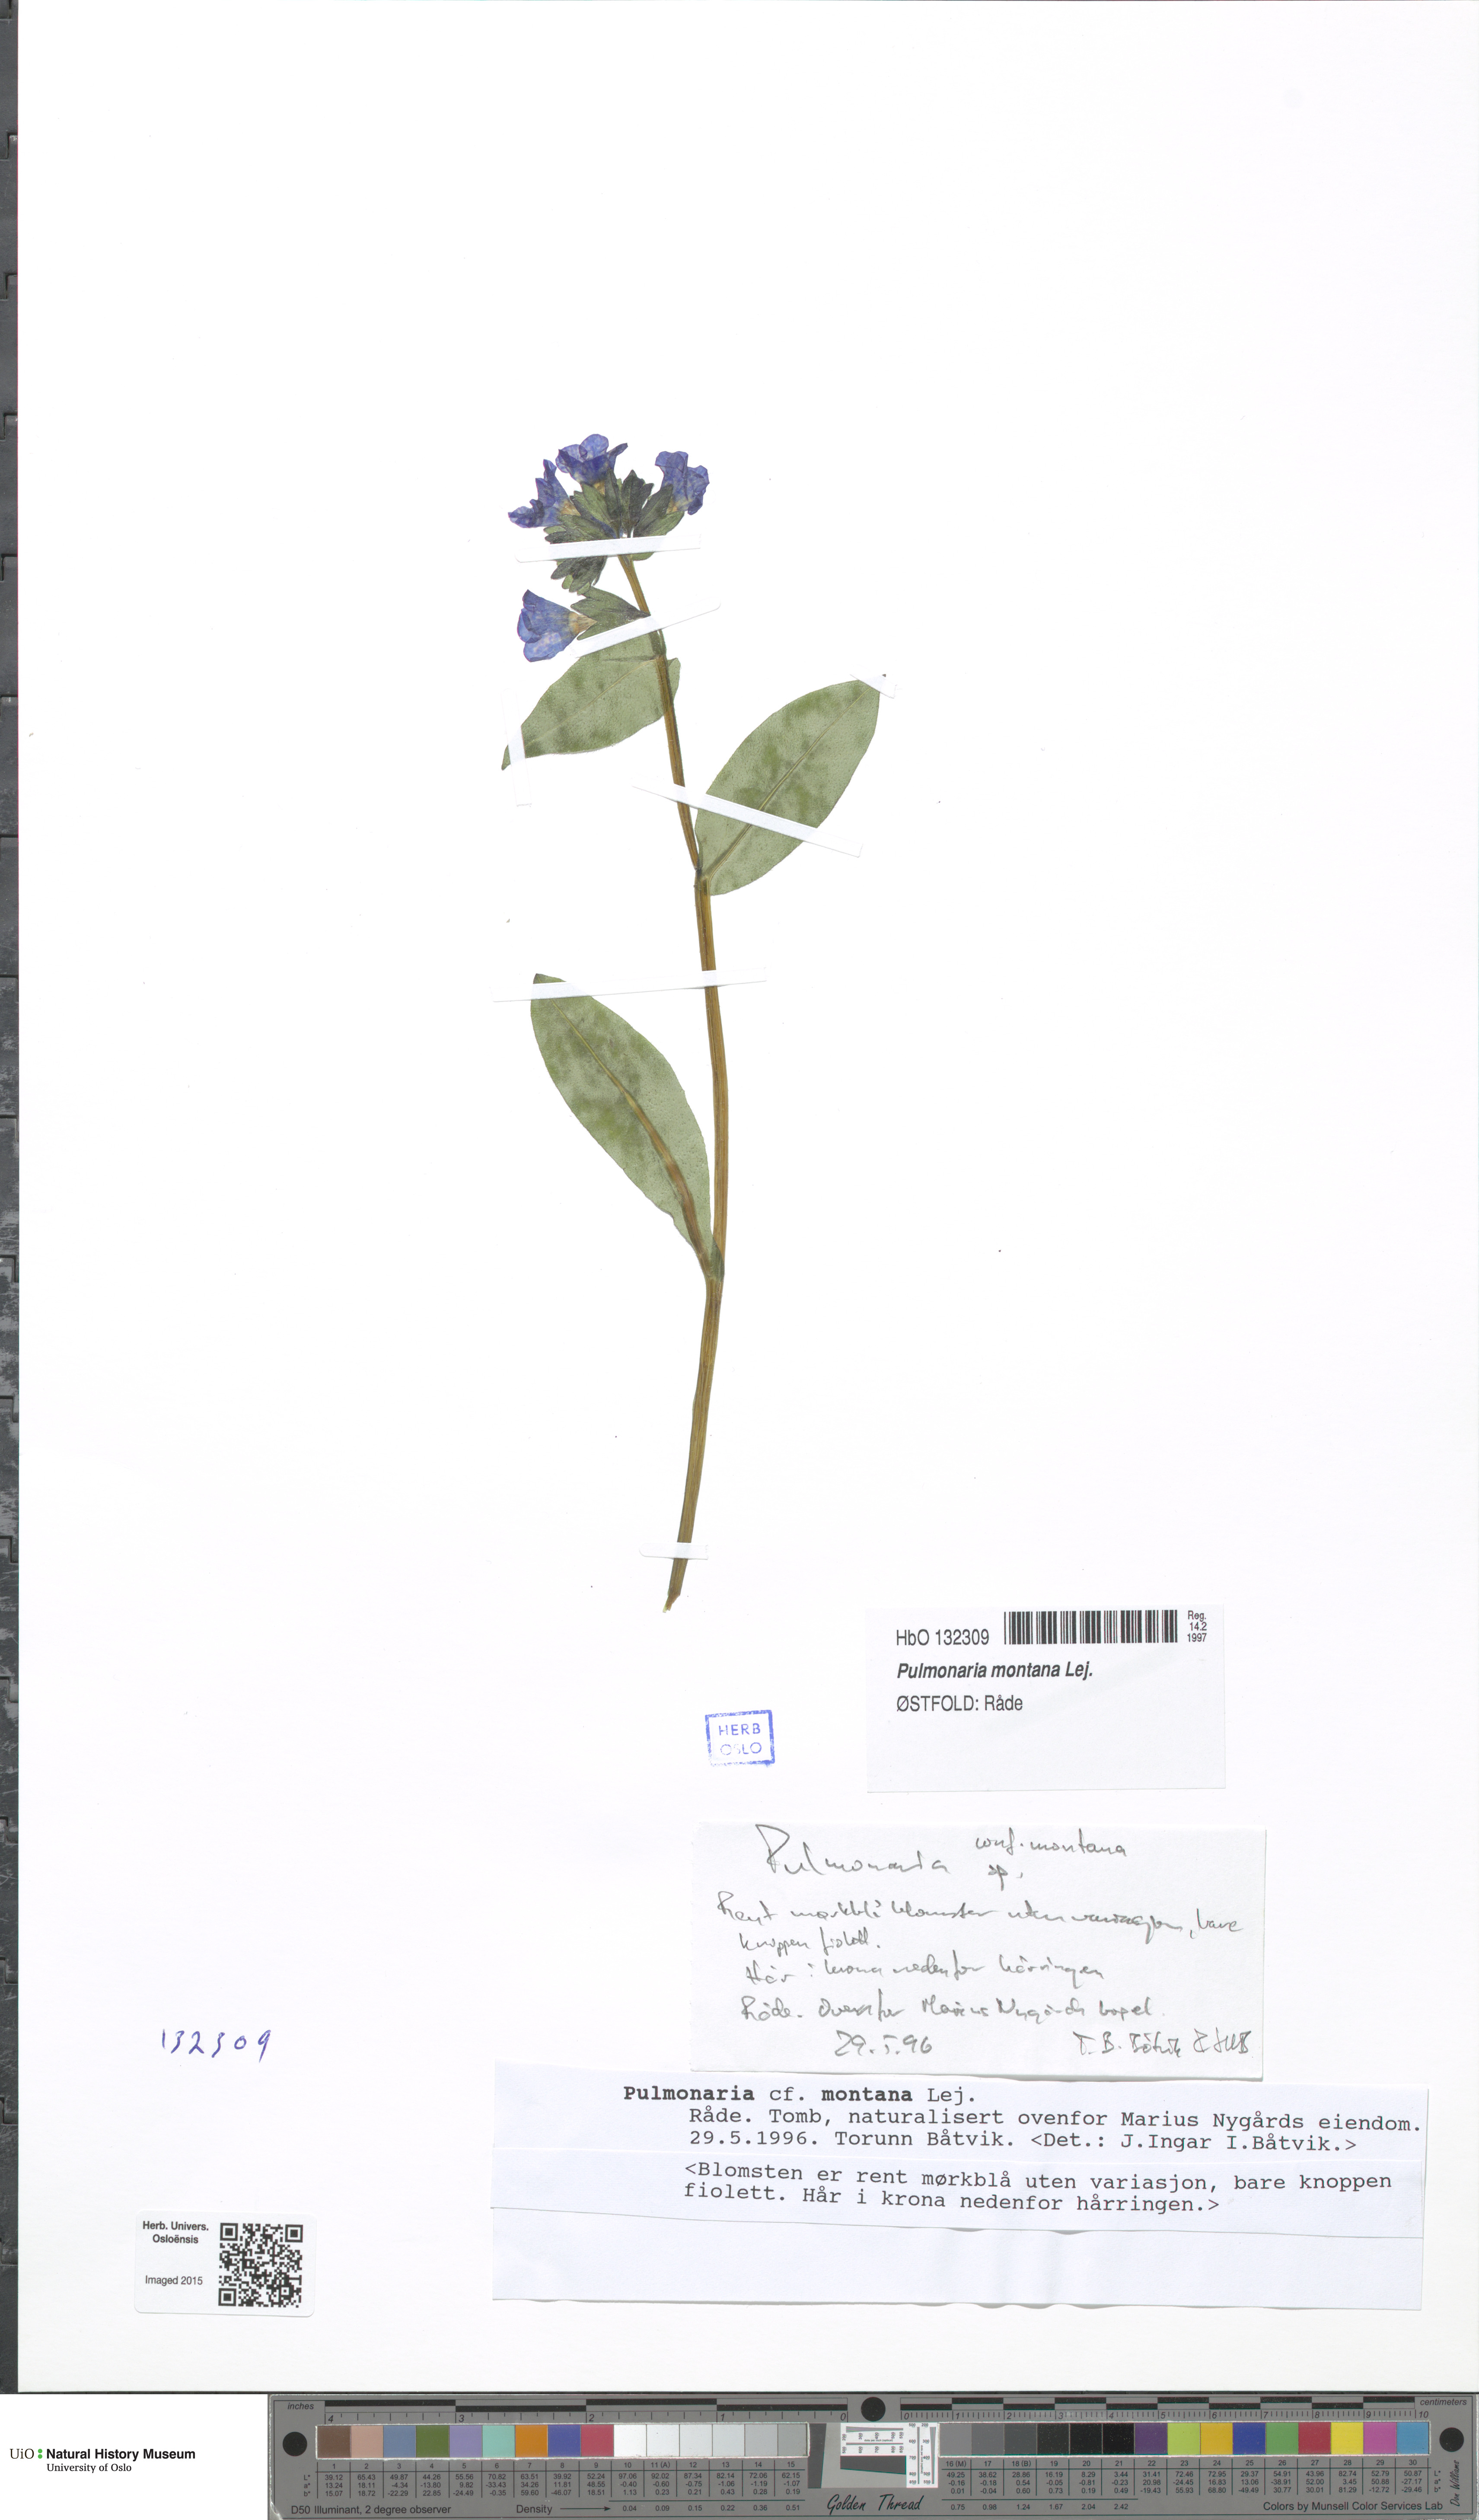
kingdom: Plantae
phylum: Tracheophyta
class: Magnoliopsida
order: Boraginales
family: Boraginaceae
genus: Pulmonaria
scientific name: Pulmonaria mollis
